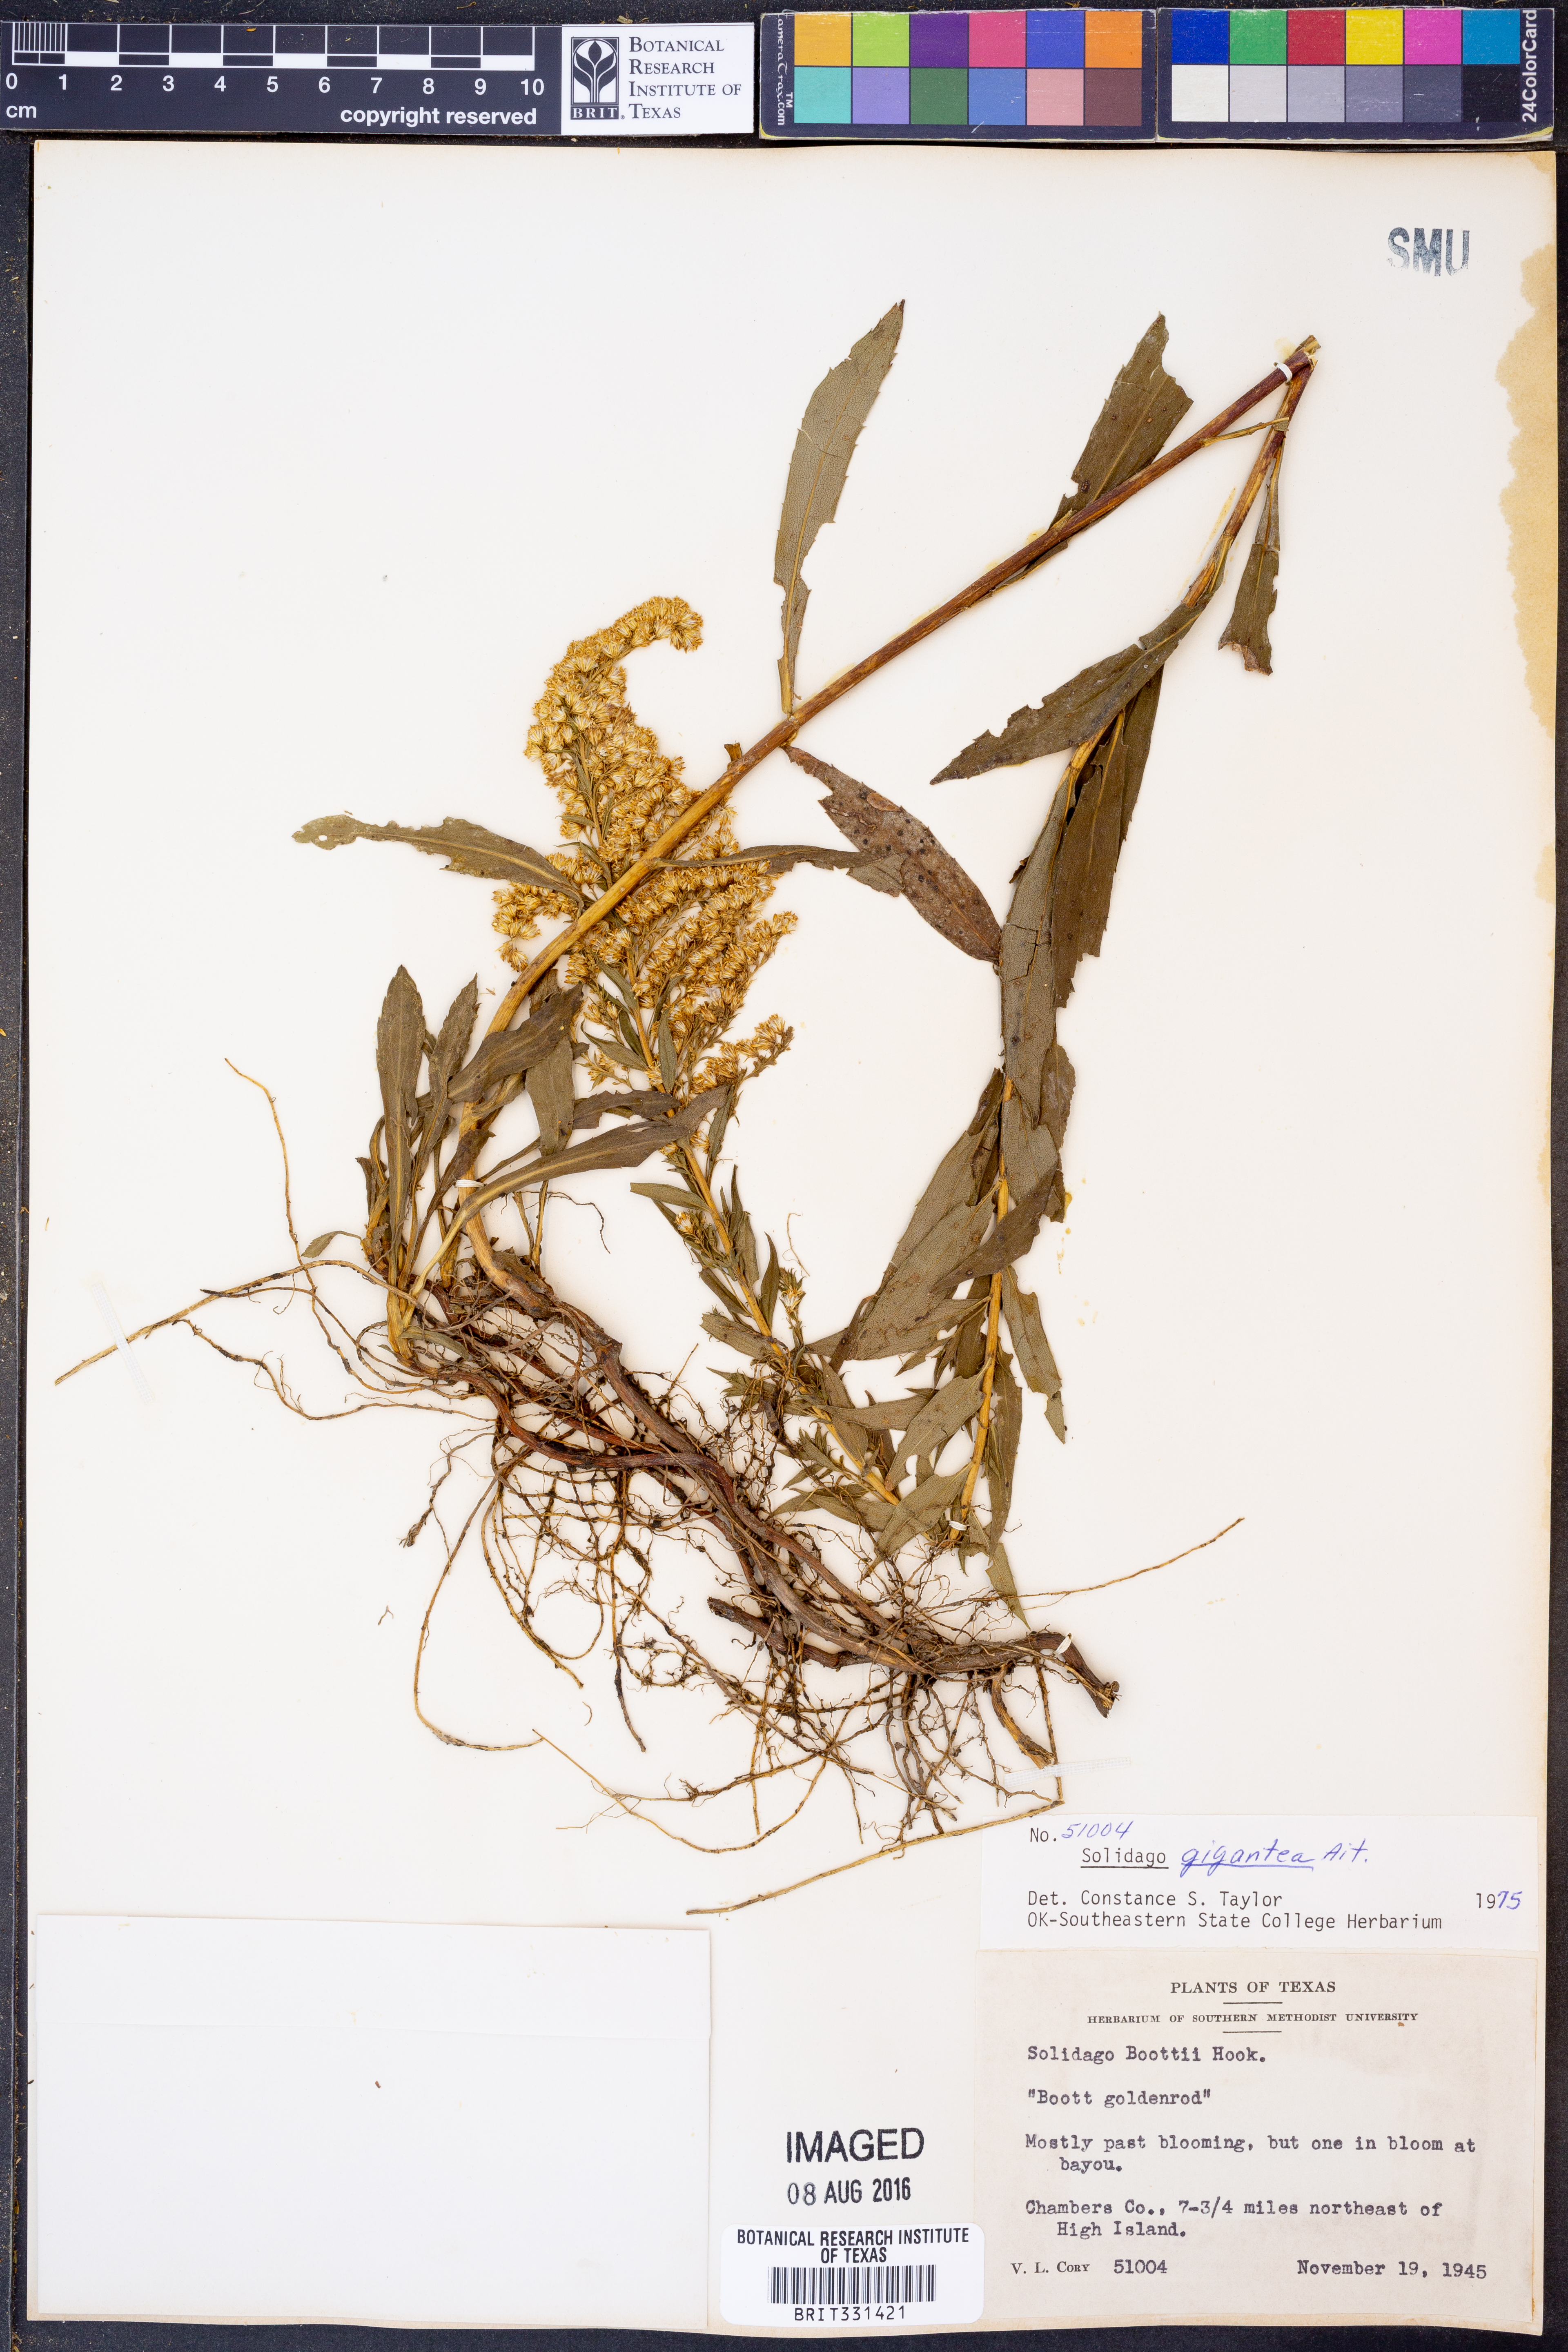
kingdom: Plantae
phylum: Tracheophyta
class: Magnoliopsida
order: Asterales
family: Asteraceae
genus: Solidago
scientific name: Solidago gigantea
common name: Giant goldenrod
